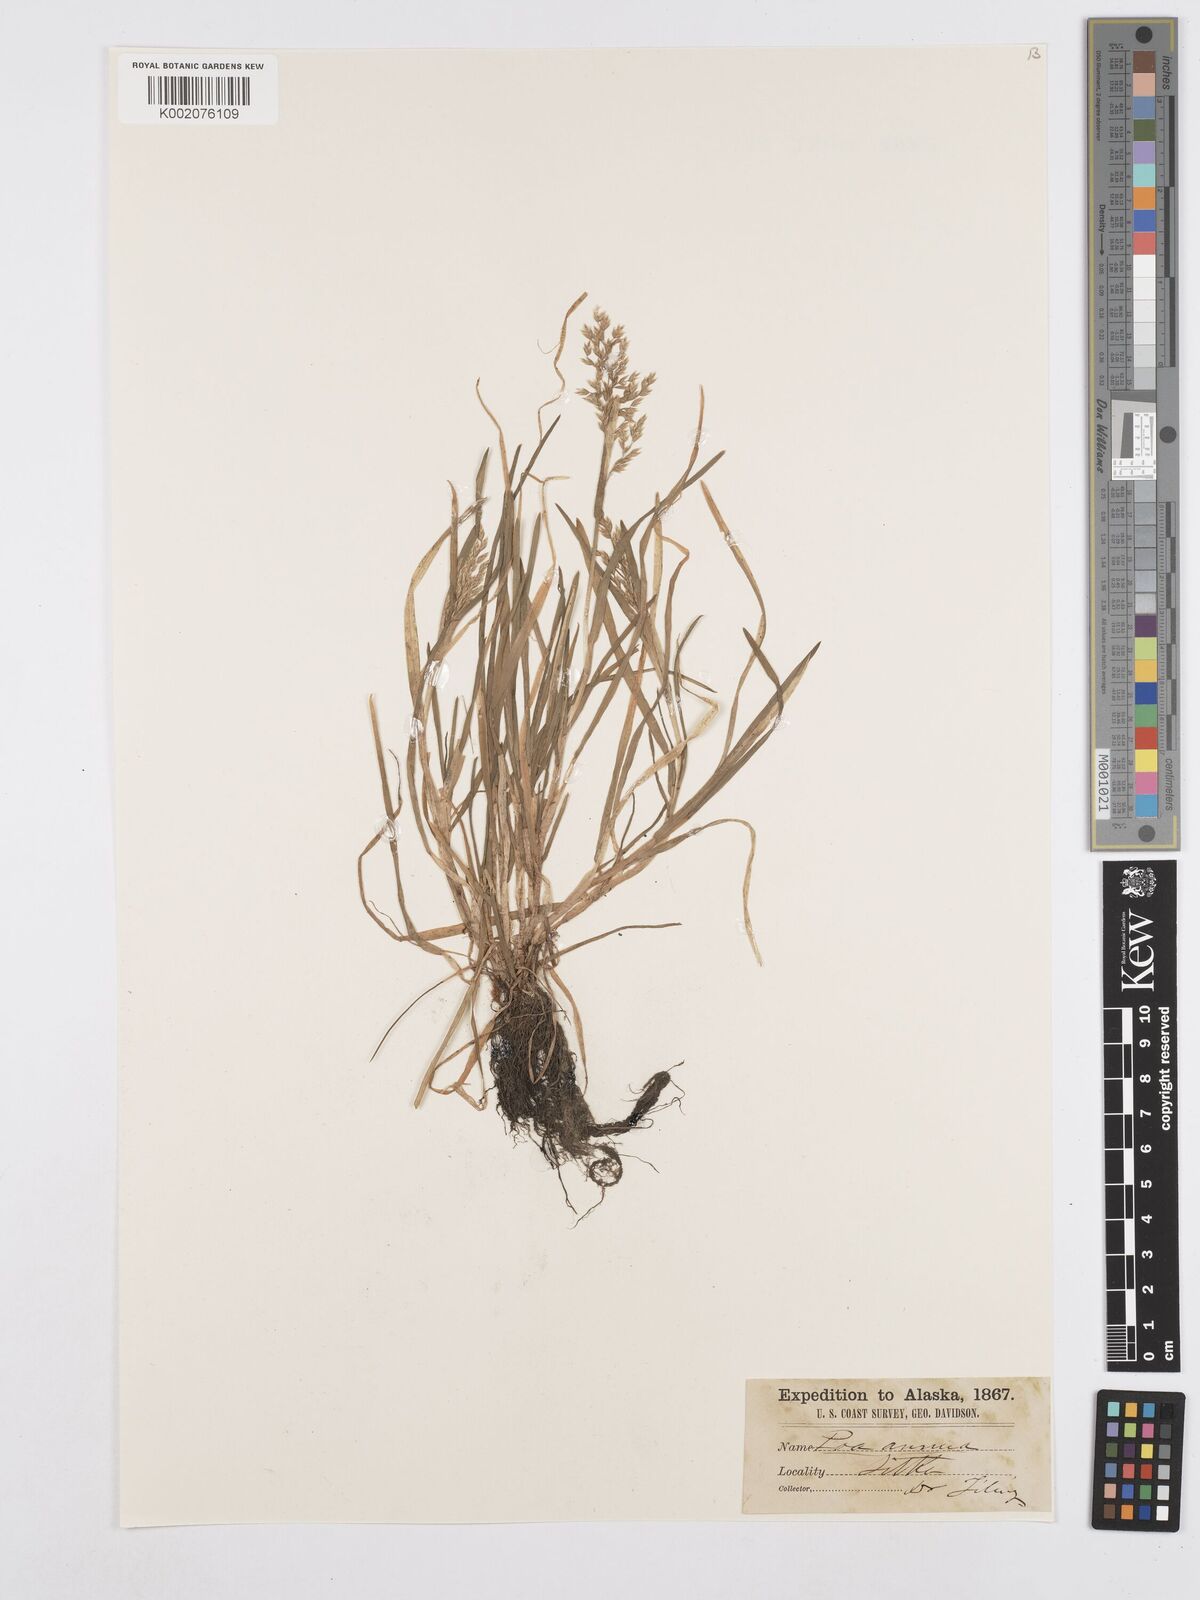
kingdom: Plantae
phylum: Tracheophyta
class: Liliopsida
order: Poales
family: Poaceae
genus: Poa
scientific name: Poa annua
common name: Annual bluegrass
